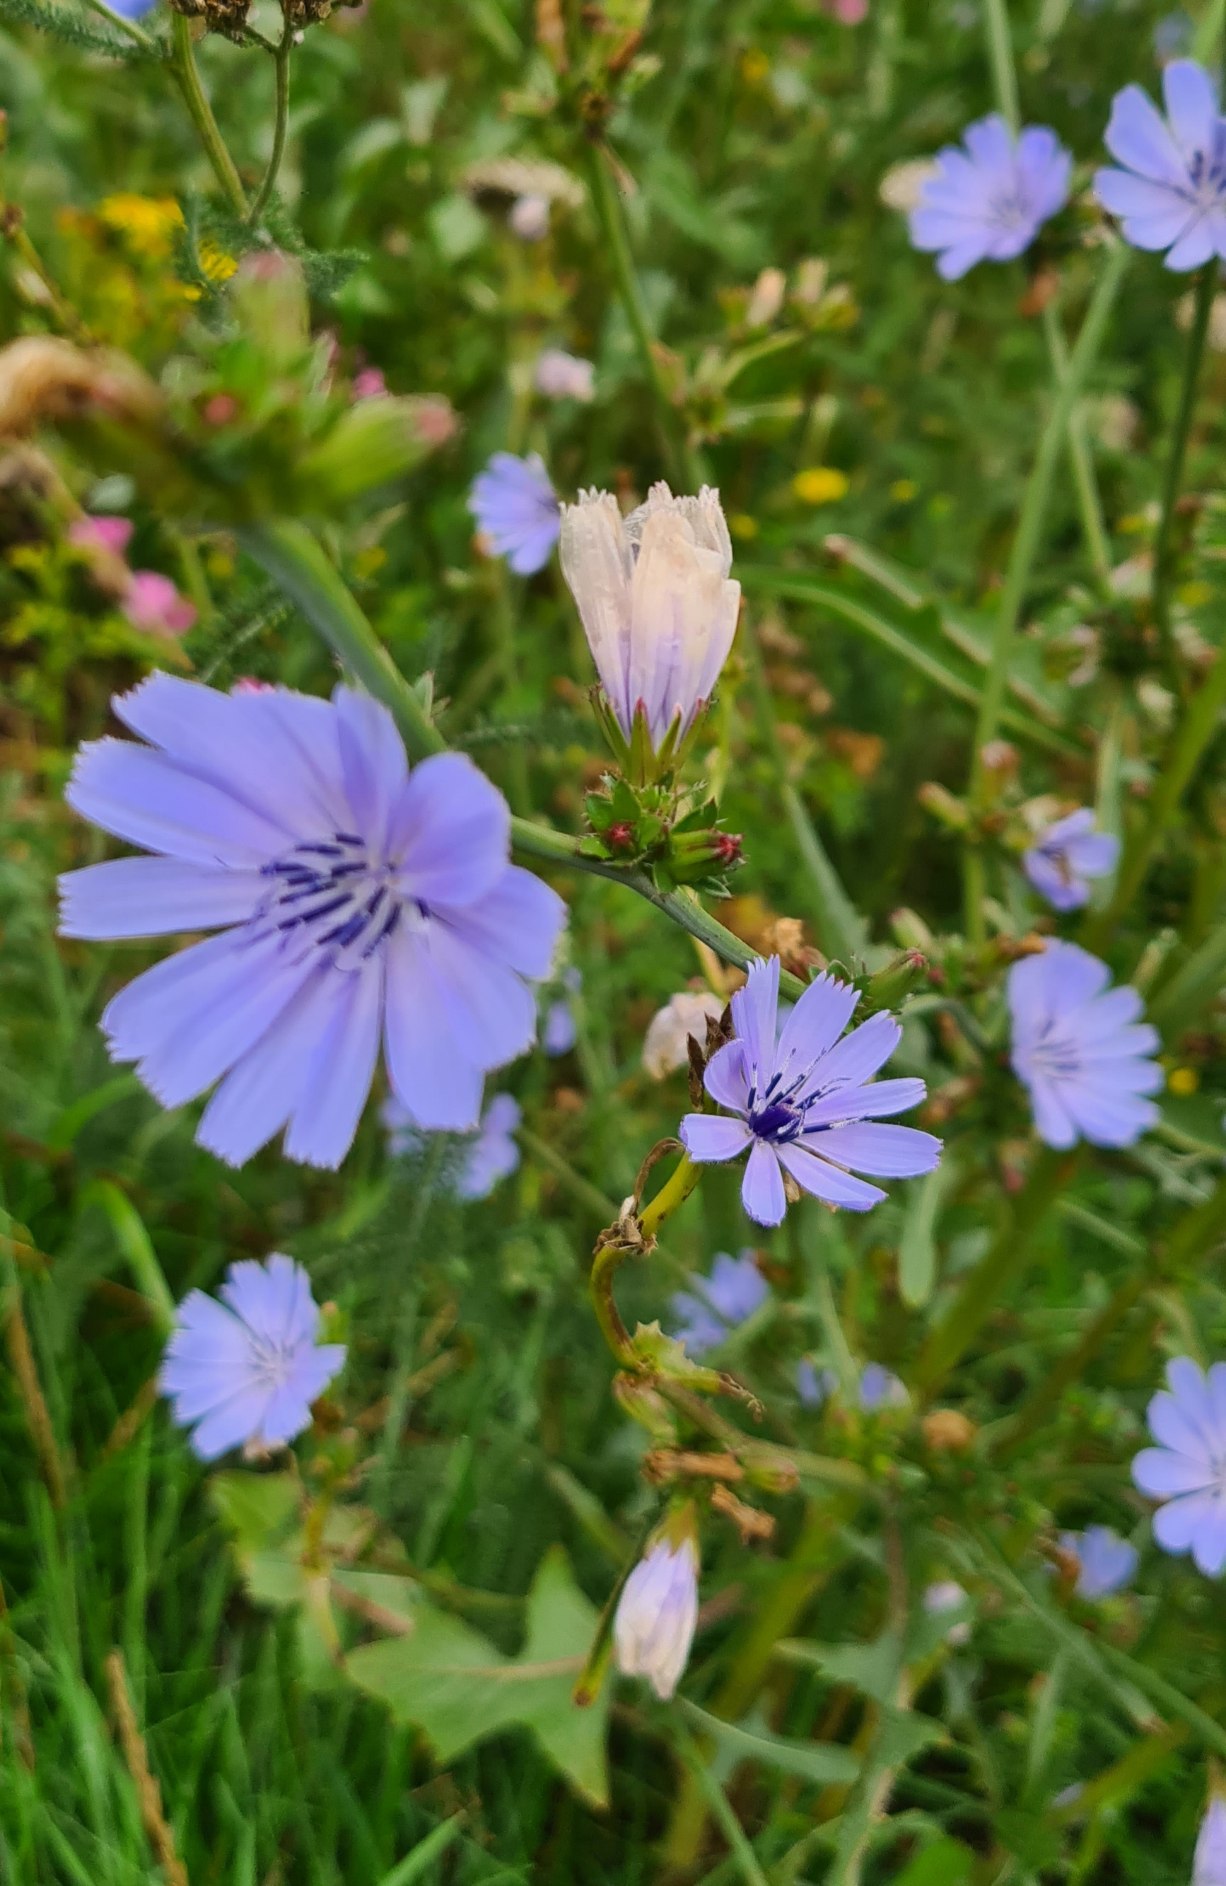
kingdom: Plantae
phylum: Tracheophyta
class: Magnoliopsida
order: Asterales
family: Asteraceae
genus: Cichorium
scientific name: Cichorium intybus
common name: Cikorie
